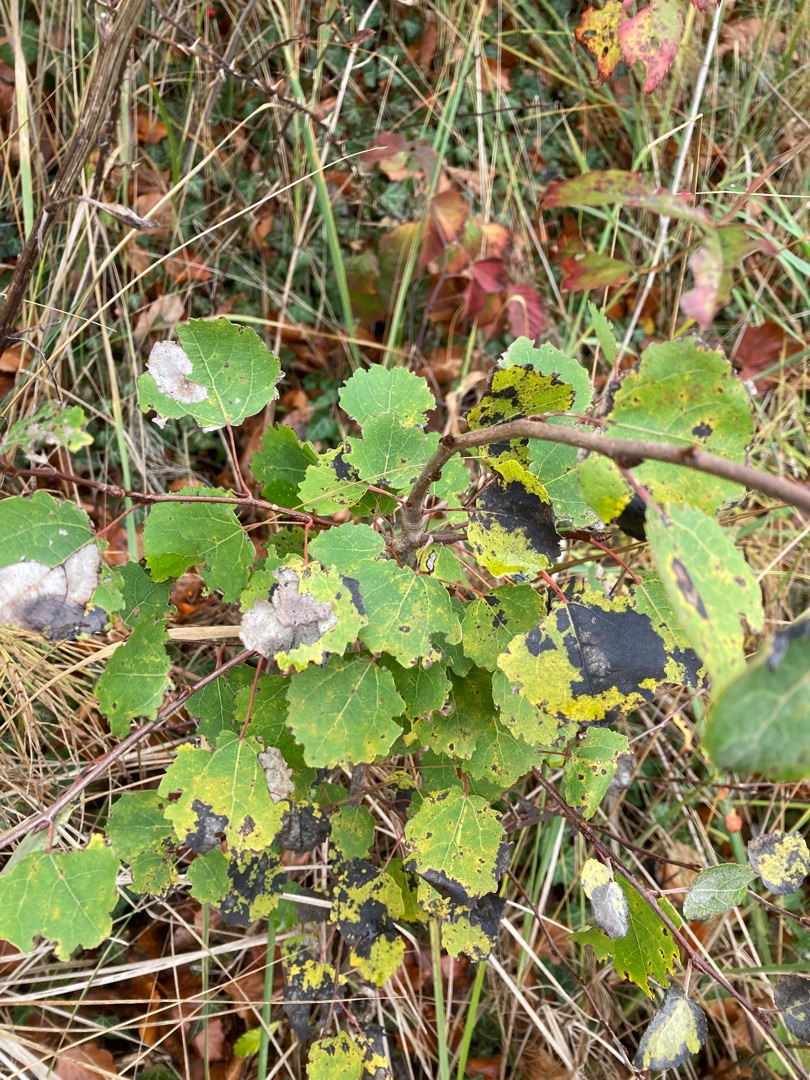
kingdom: Plantae
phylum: Tracheophyta
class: Magnoliopsida
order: Malpighiales
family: Salicaceae
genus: Populus
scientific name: Populus tremula
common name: Bævreasp
